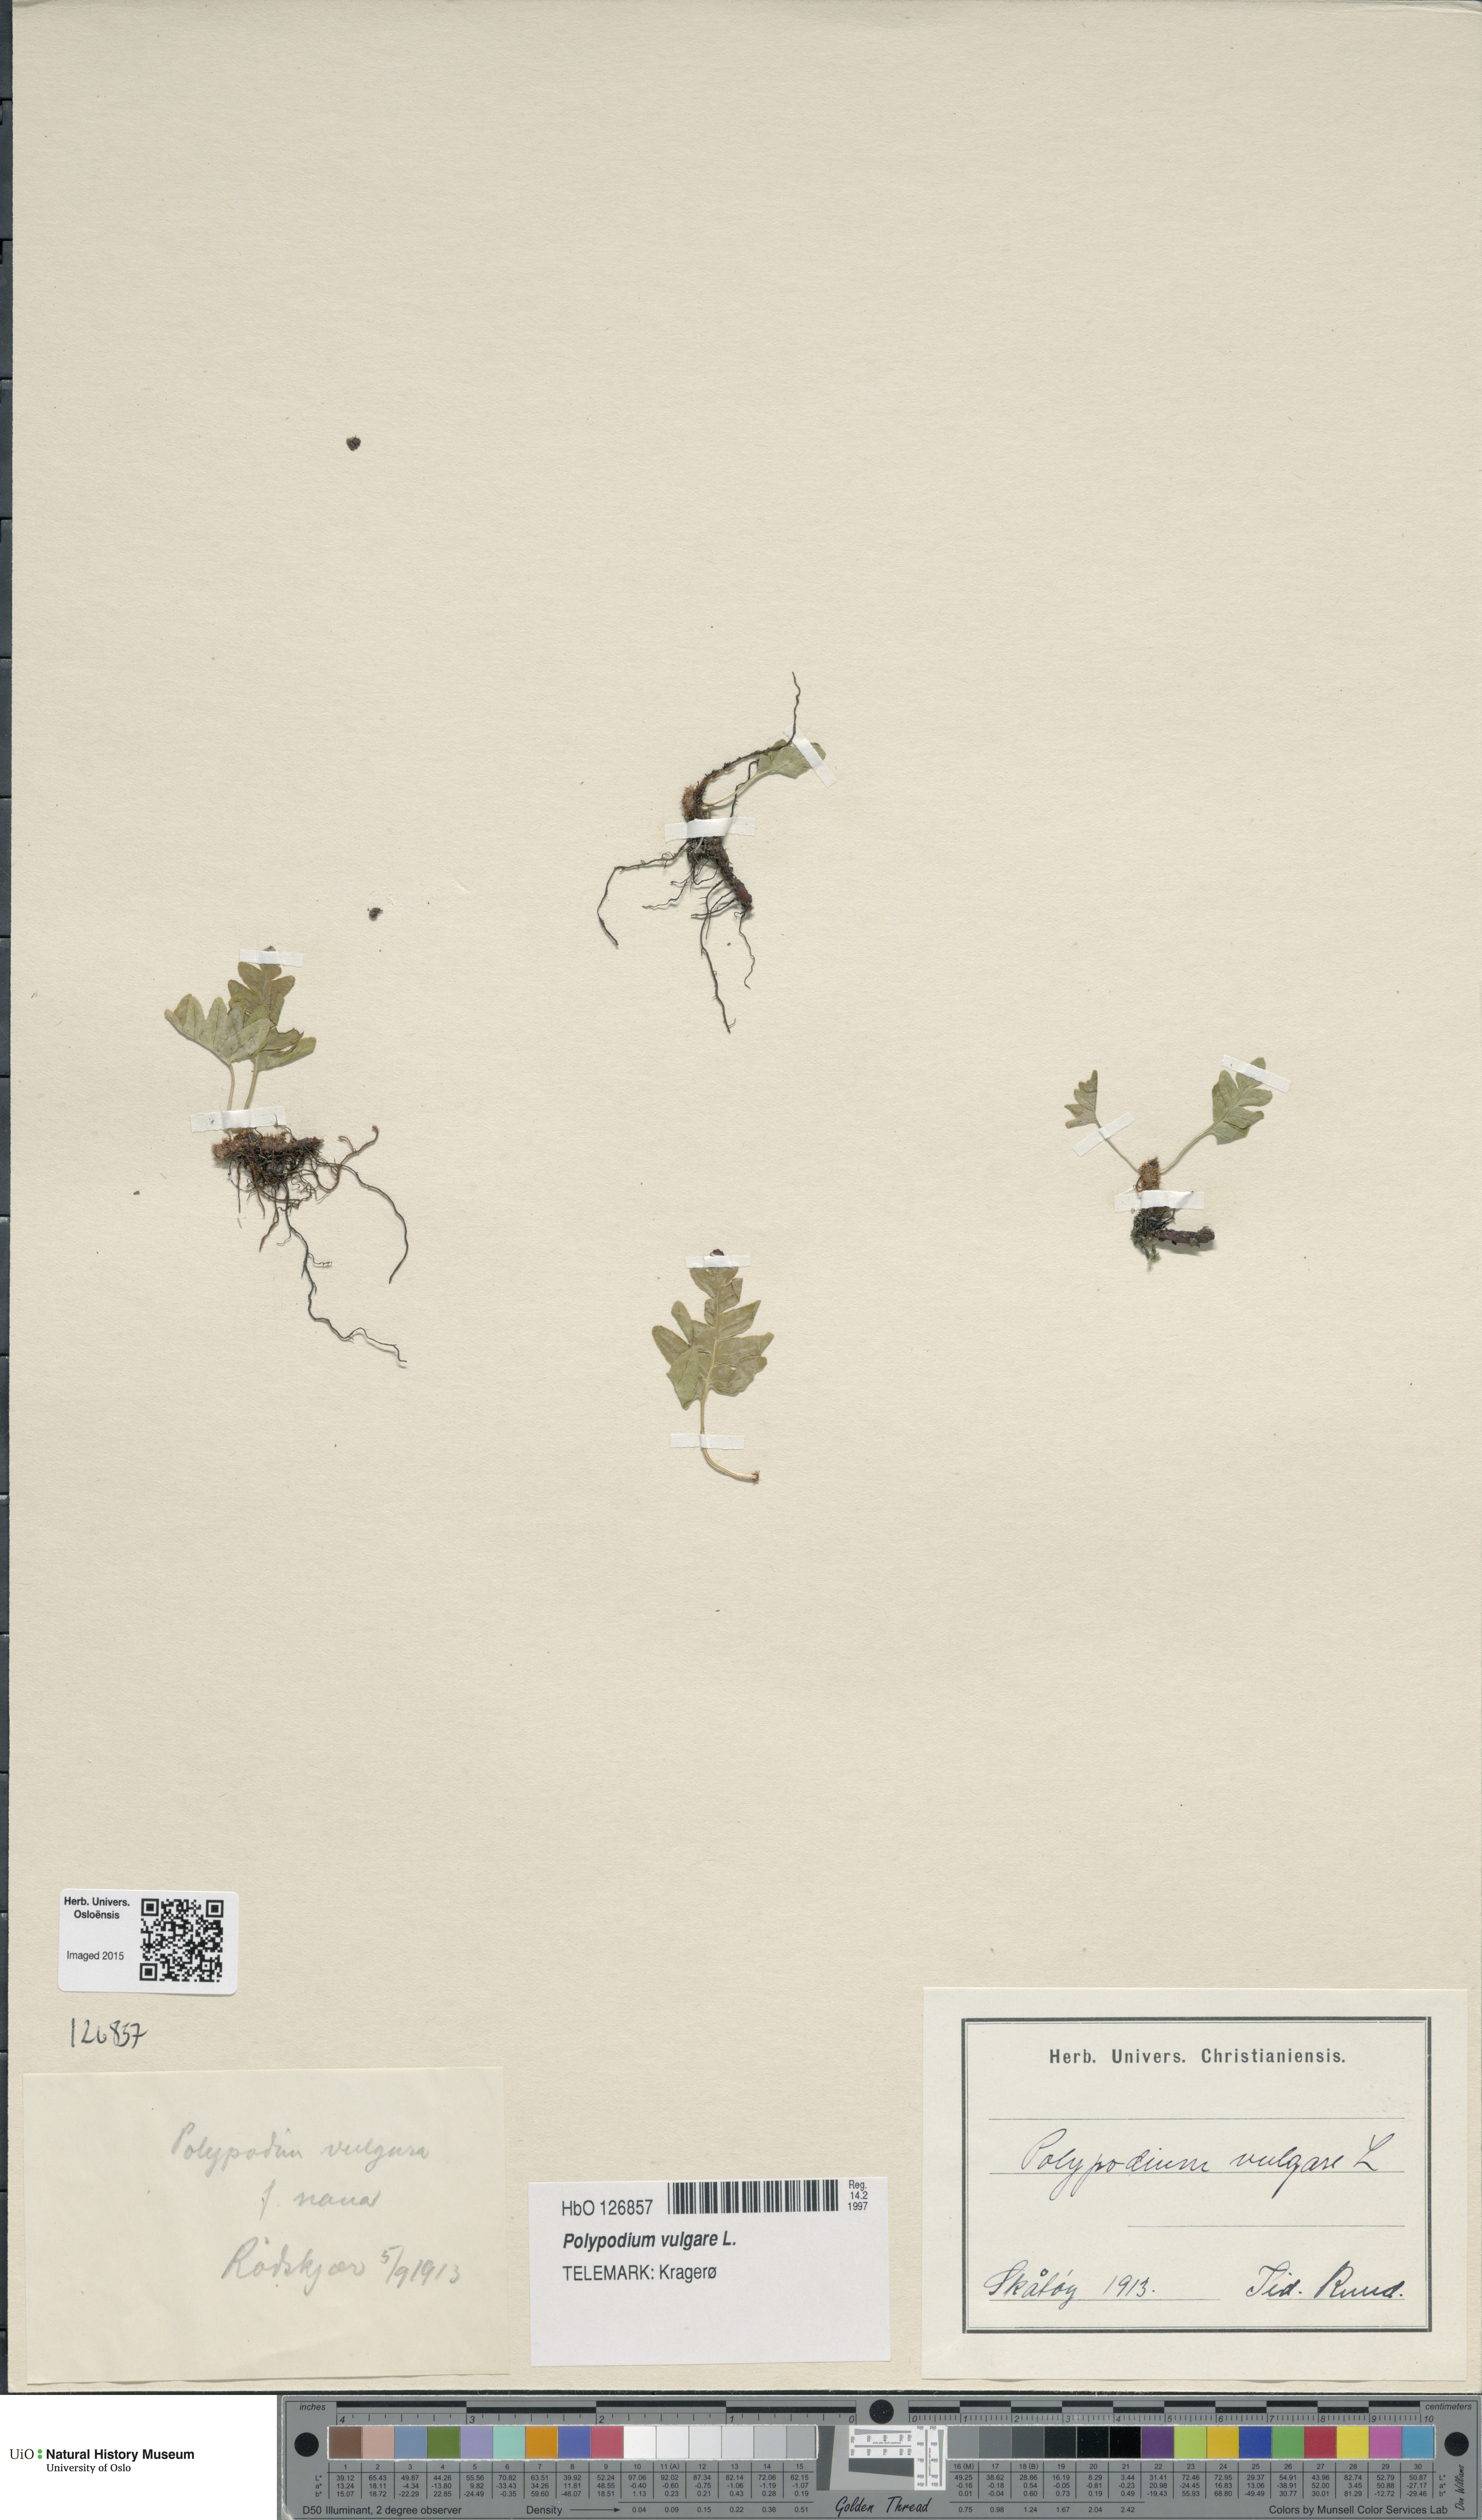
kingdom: Plantae
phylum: Tracheophyta
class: Polypodiopsida
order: Polypodiales
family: Polypodiaceae
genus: Polypodium
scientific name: Polypodium vulgare
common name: Common polypody
